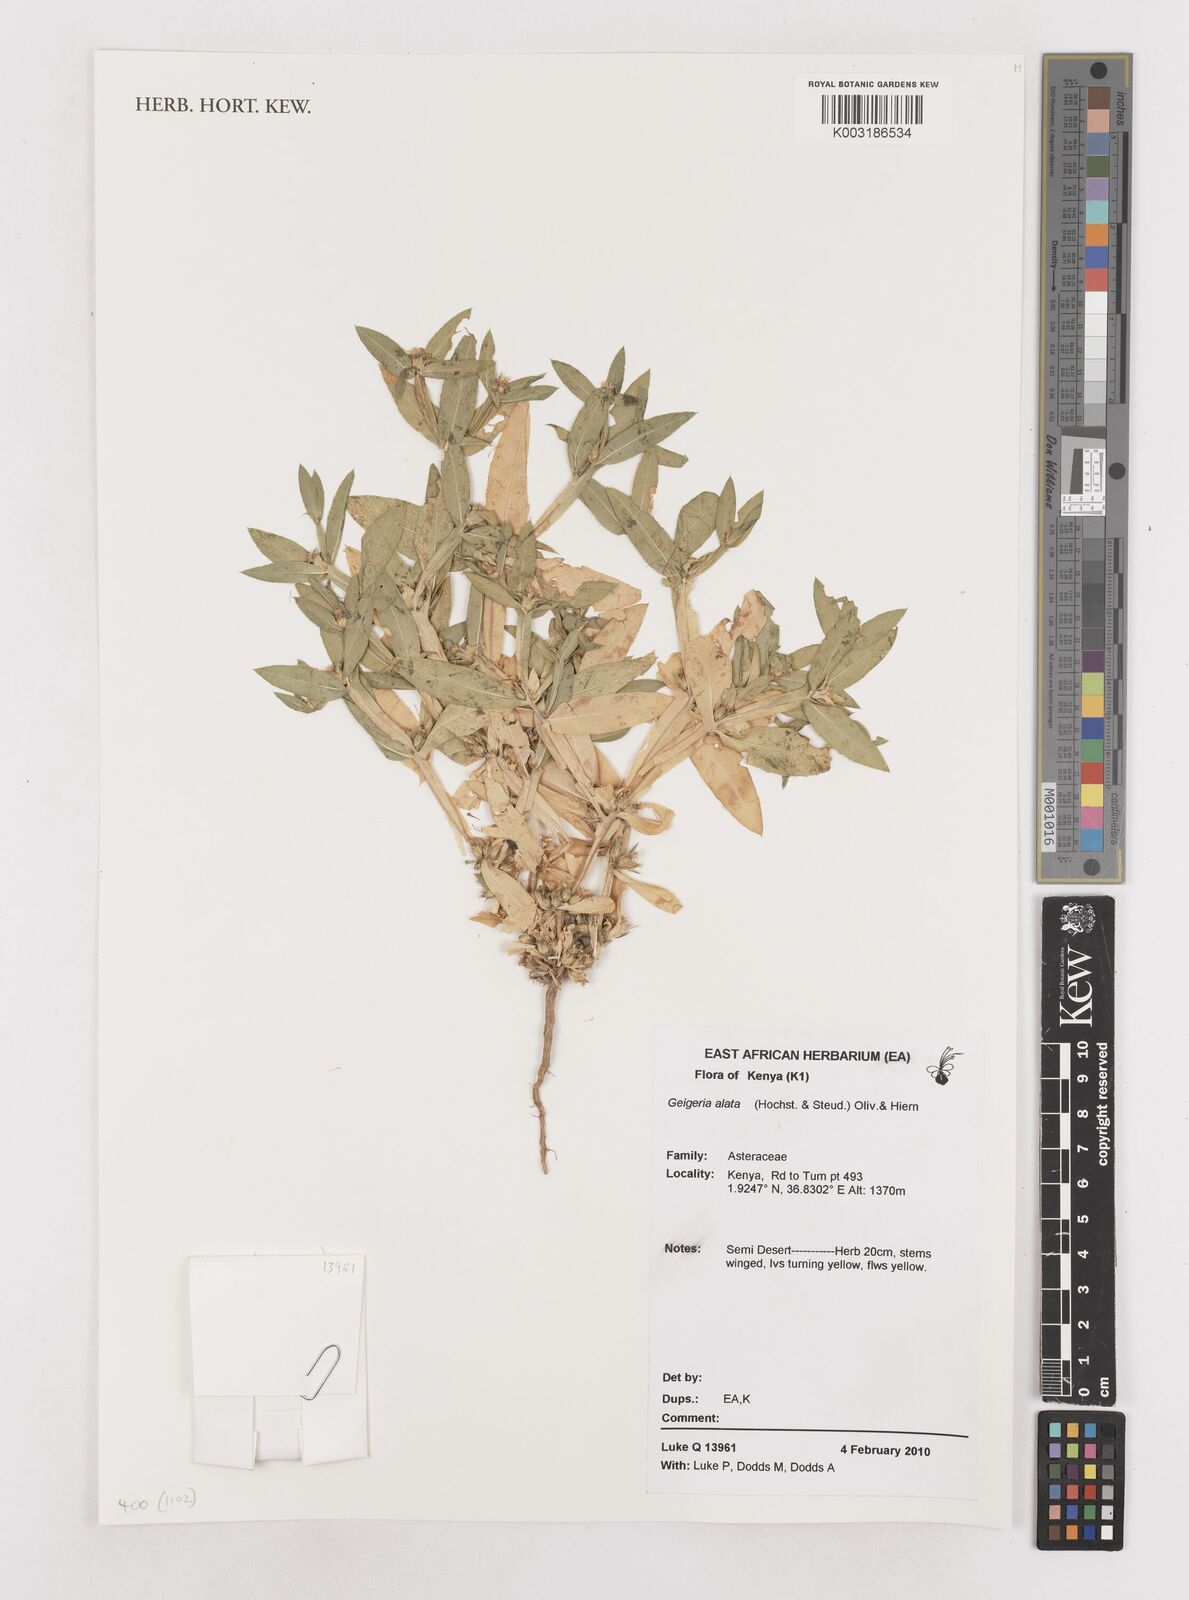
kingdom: Plantae
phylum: Tracheophyta
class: Magnoliopsida
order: Asterales
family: Asteraceae
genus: Geigeria
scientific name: Geigeria alata
